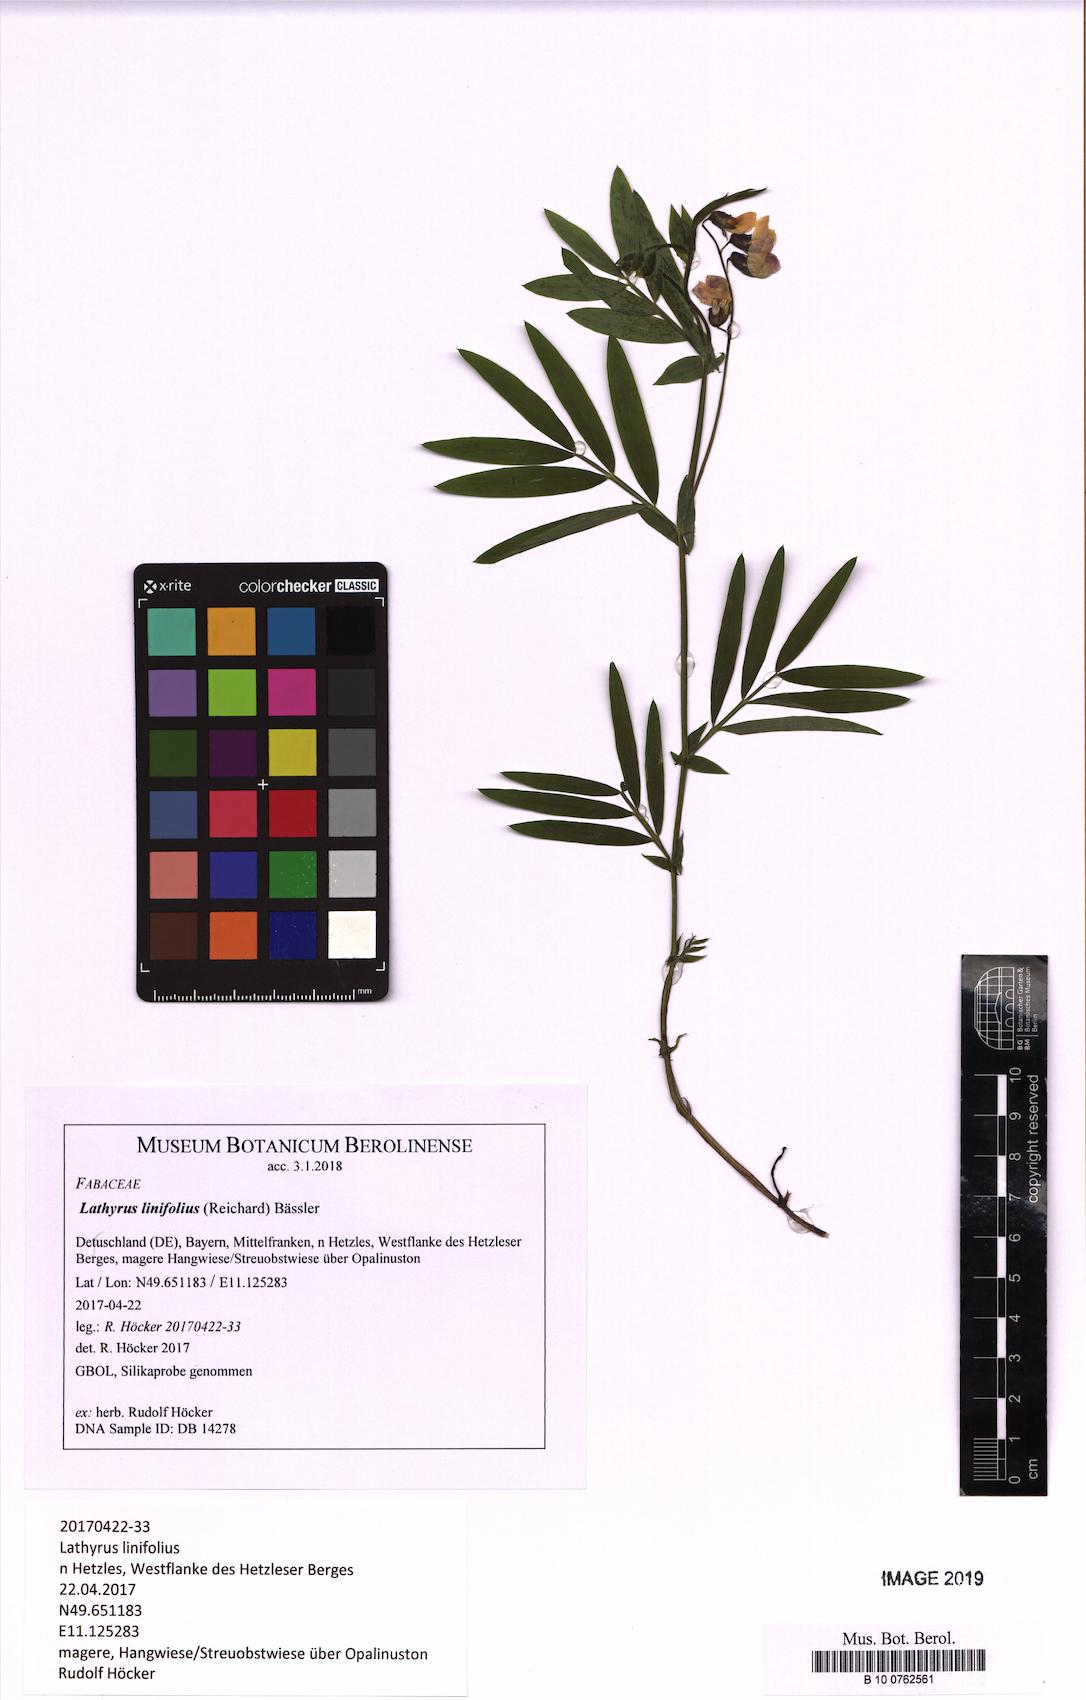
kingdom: Plantae
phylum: Tracheophyta
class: Magnoliopsida
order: Fabales
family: Fabaceae
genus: Lathyrus
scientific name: Lathyrus linifolius
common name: Bitter-vetch
